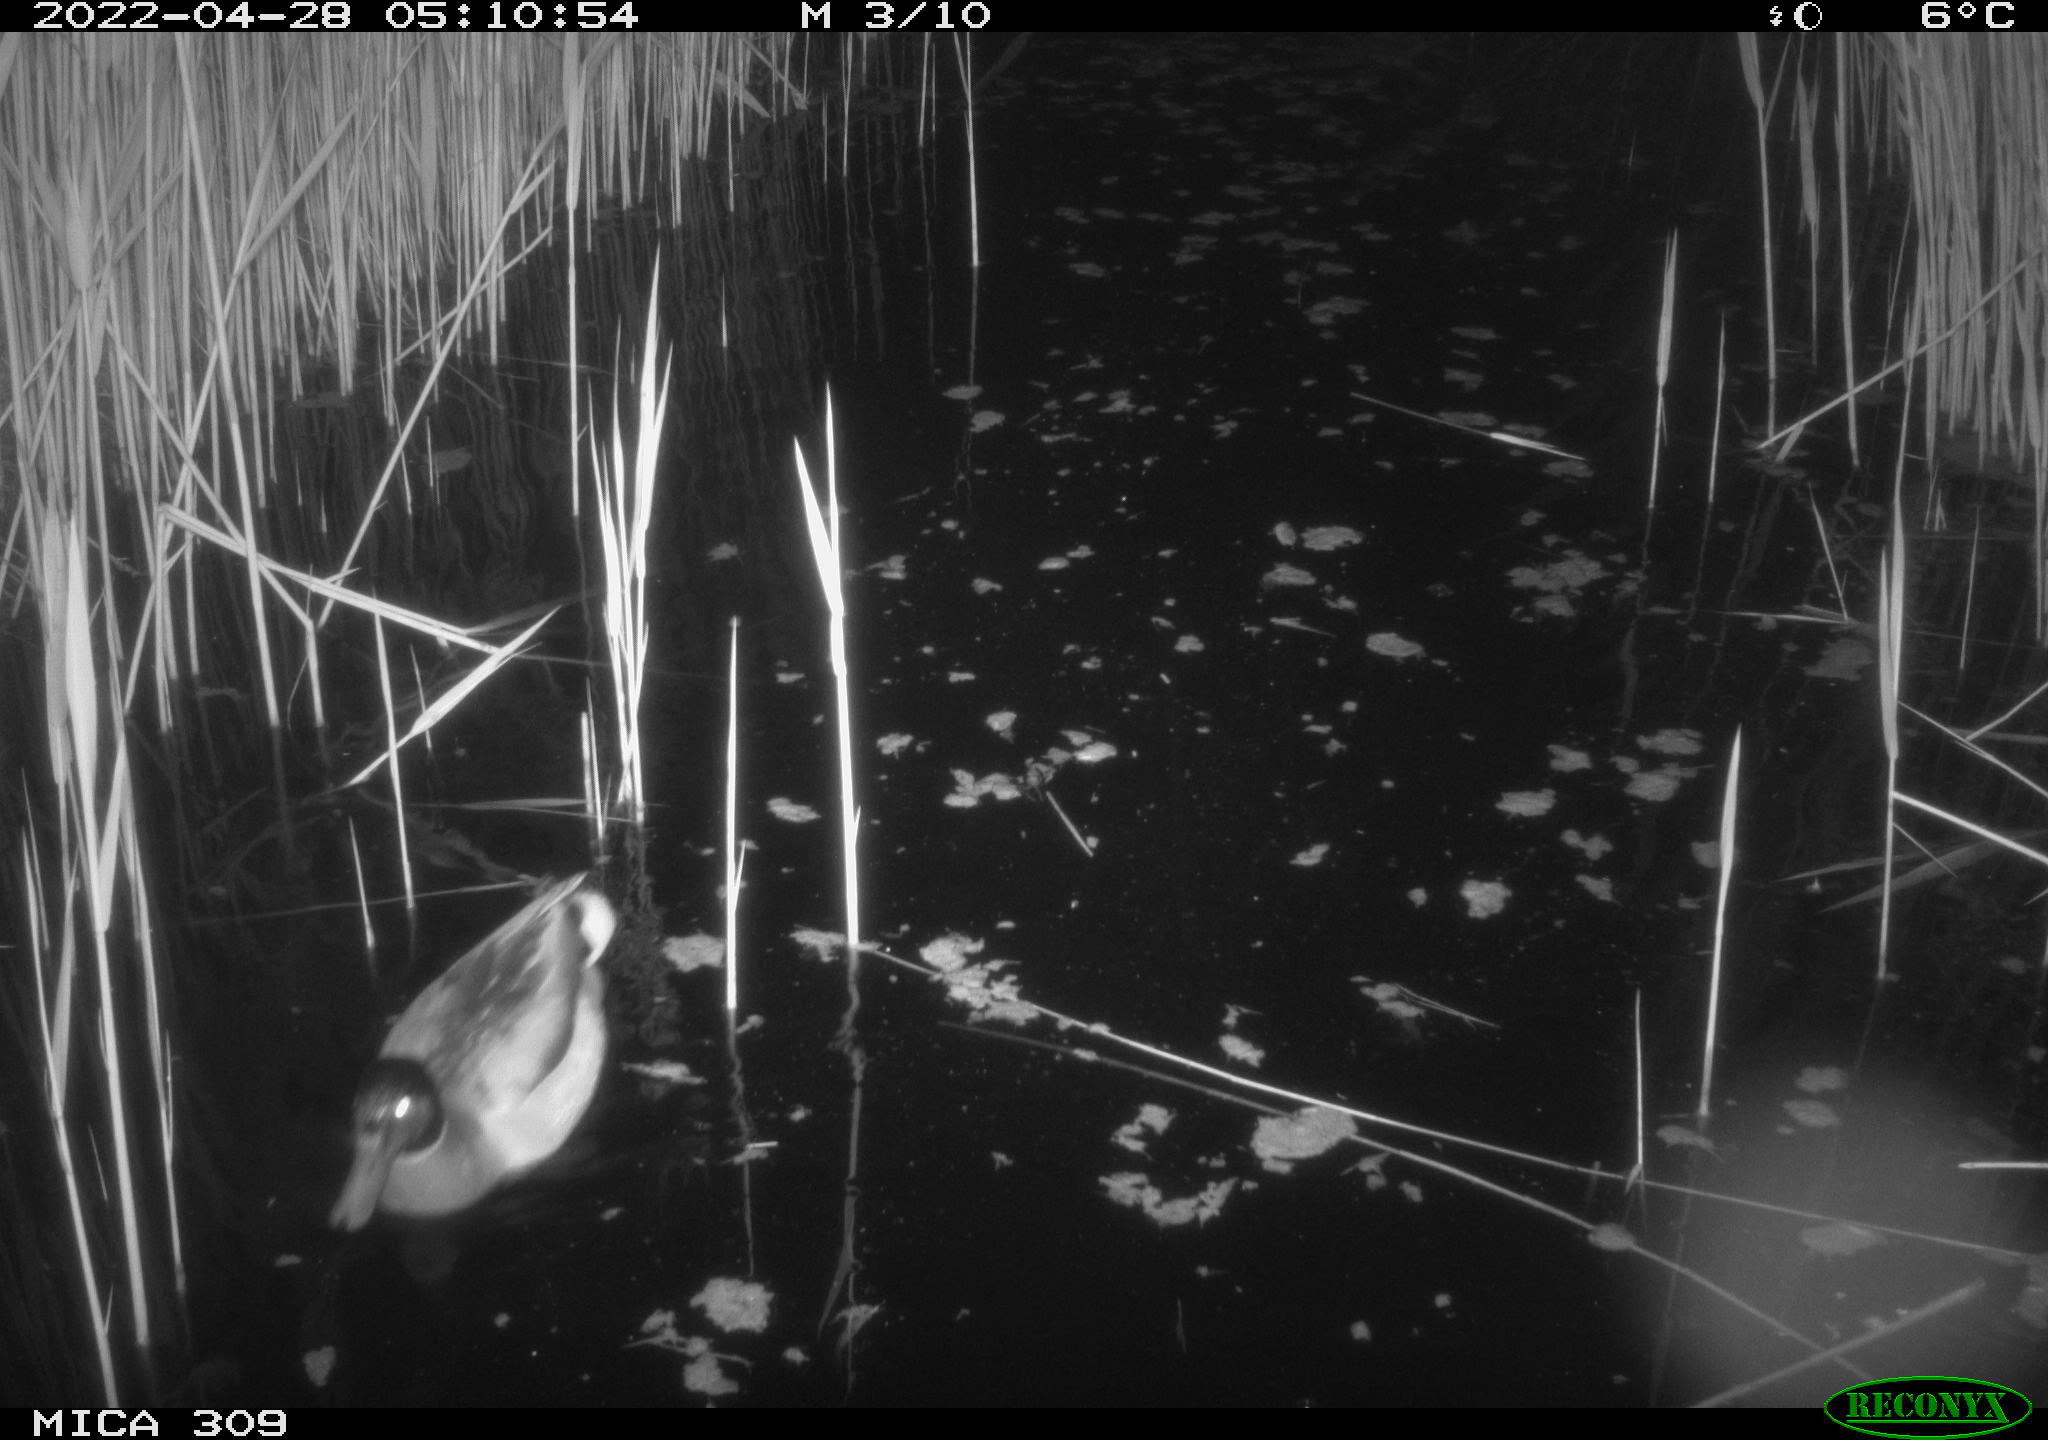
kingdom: Animalia
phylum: Chordata
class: Aves
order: Gruiformes
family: Rallidae
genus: Gallinula
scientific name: Gallinula chloropus
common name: Common moorhen
